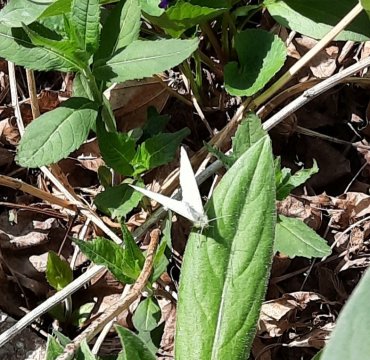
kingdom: Animalia
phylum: Arthropoda
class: Insecta
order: Lepidoptera
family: Pieridae
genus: Pieris
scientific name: Pieris rapae
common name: Cabbage White
